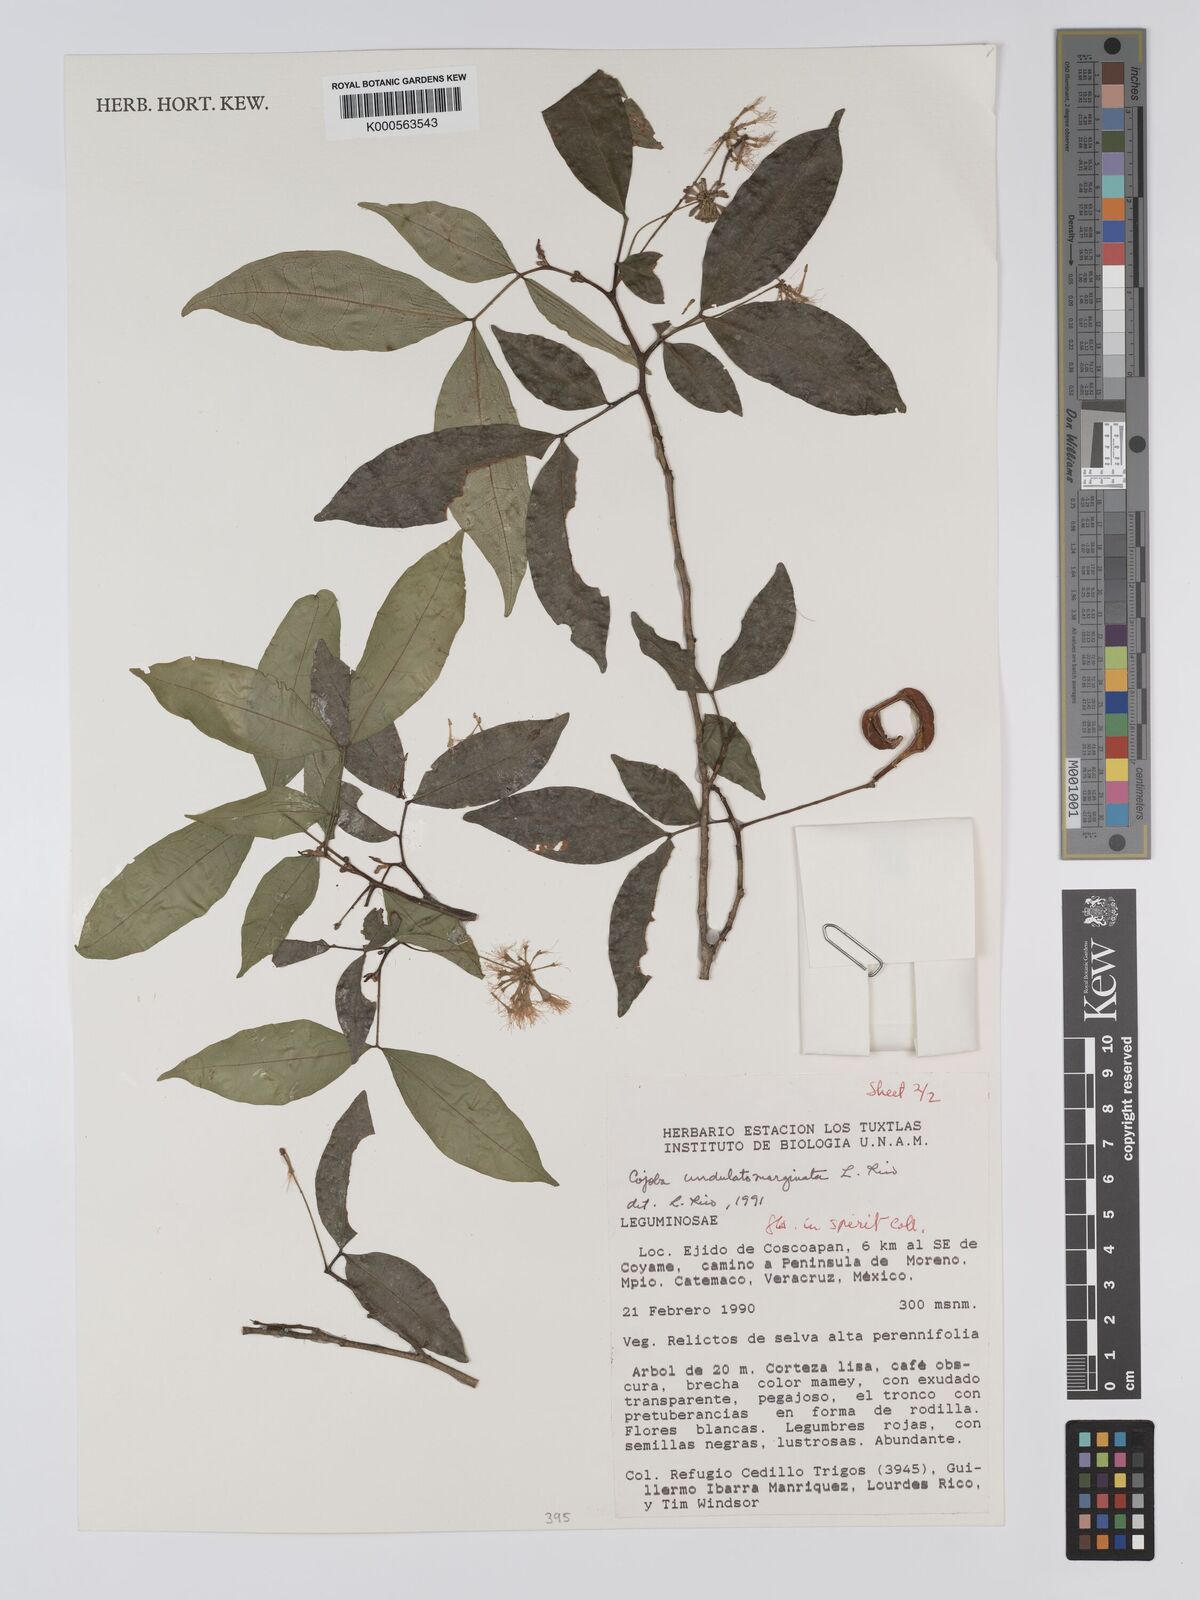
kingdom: Plantae
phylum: Tracheophyta
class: Magnoliopsida
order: Fabales
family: Fabaceae
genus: Cojoba
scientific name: Cojoba rufescens
